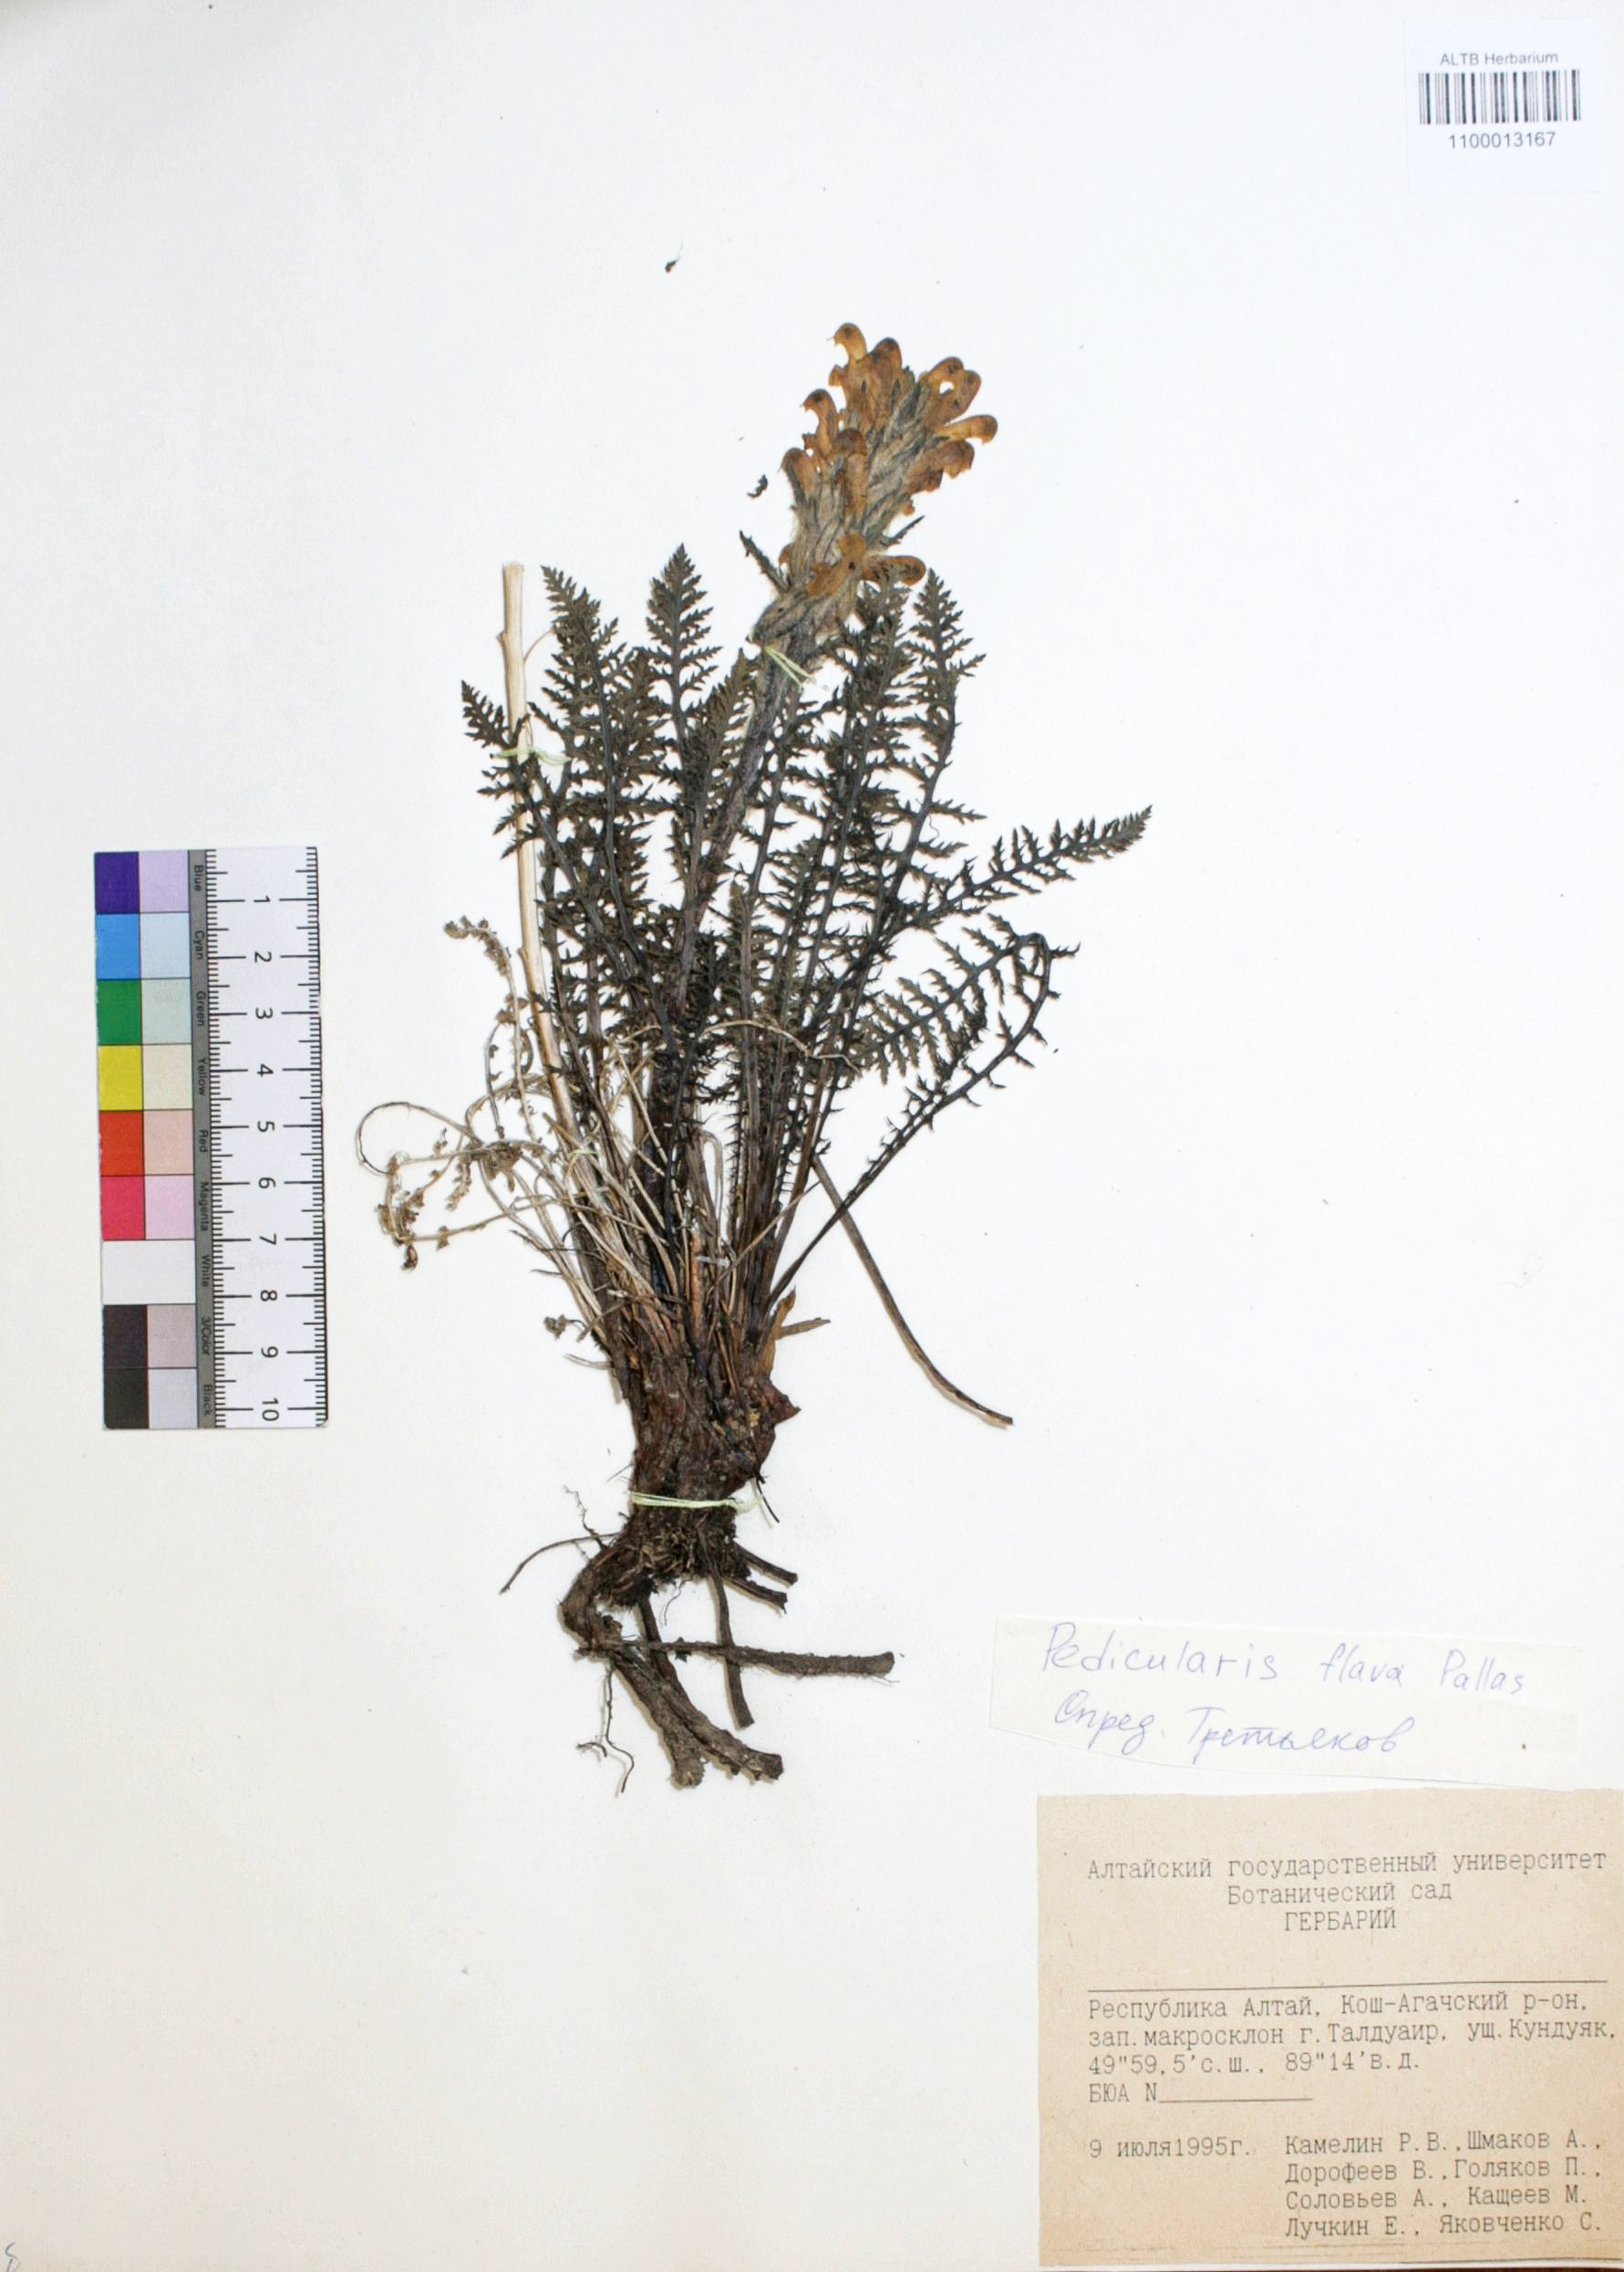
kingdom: Plantae
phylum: Tracheophyta
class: Magnoliopsida
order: Lamiales
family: Orobanchaceae
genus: Pedicularis
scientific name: Pedicularis flava
